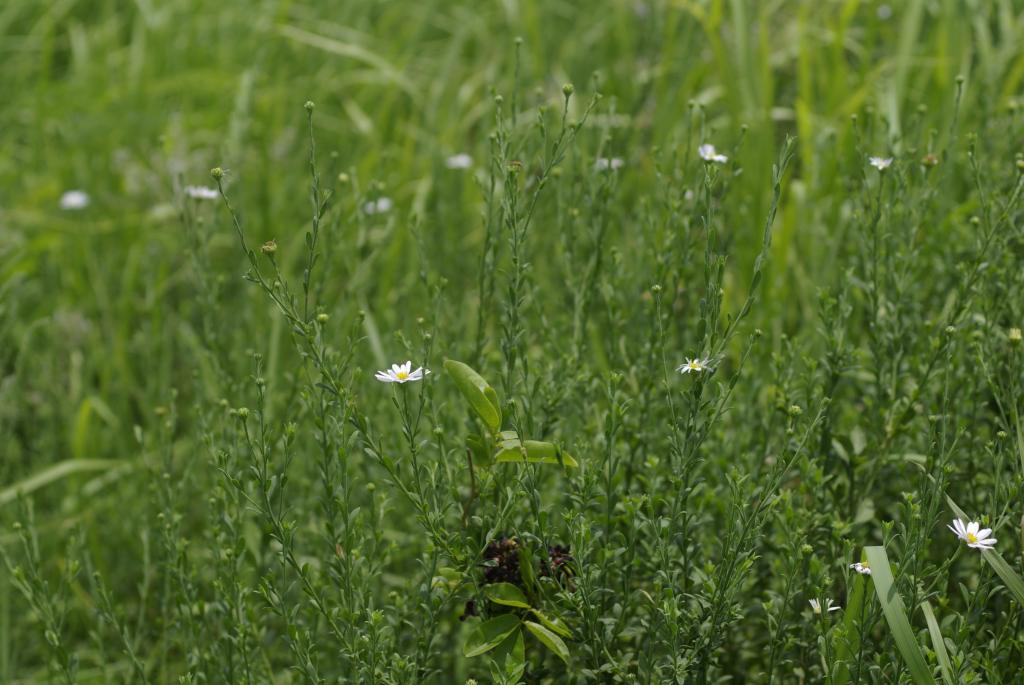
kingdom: Plantae
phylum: Tracheophyta
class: Magnoliopsida
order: Asterales
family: Asteraceae
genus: Aster
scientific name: Aster shimadae
